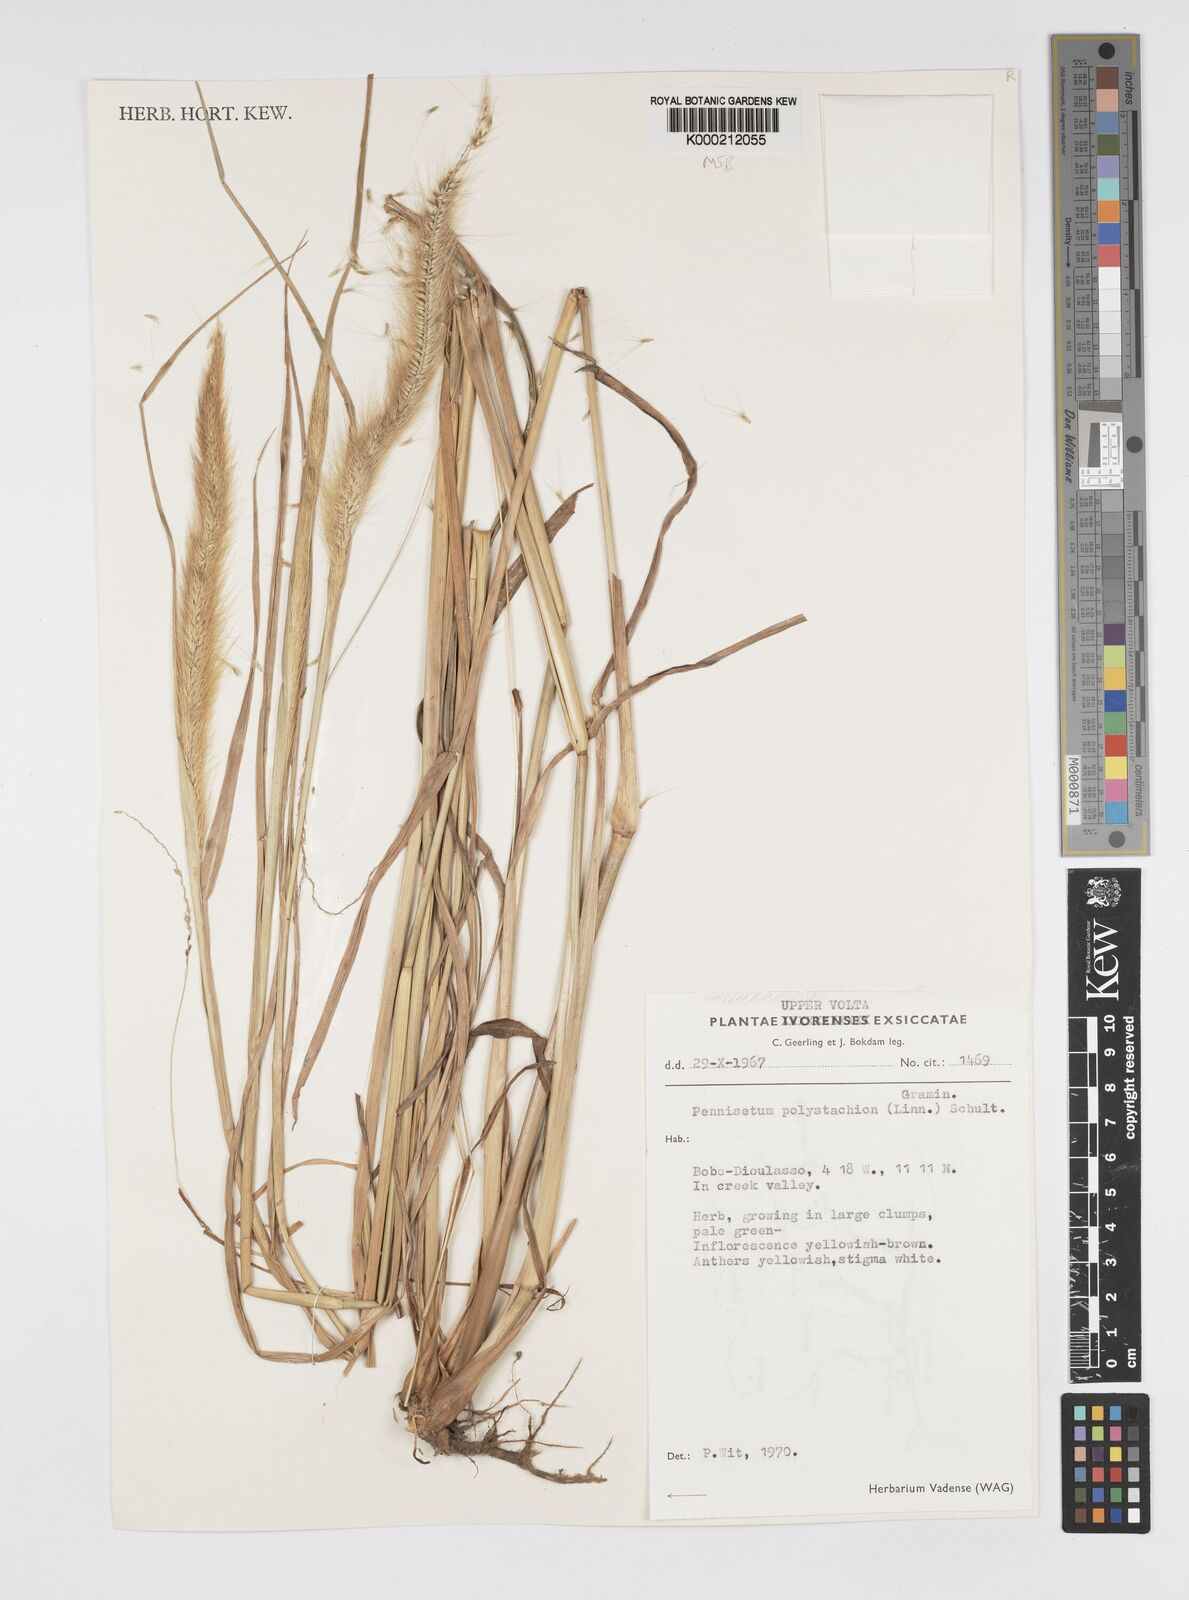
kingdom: Plantae
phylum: Tracheophyta
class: Liliopsida
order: Poales
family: Poaceae
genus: Setaria
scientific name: Setaria parviflora
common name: Knotroot bristle-grass
